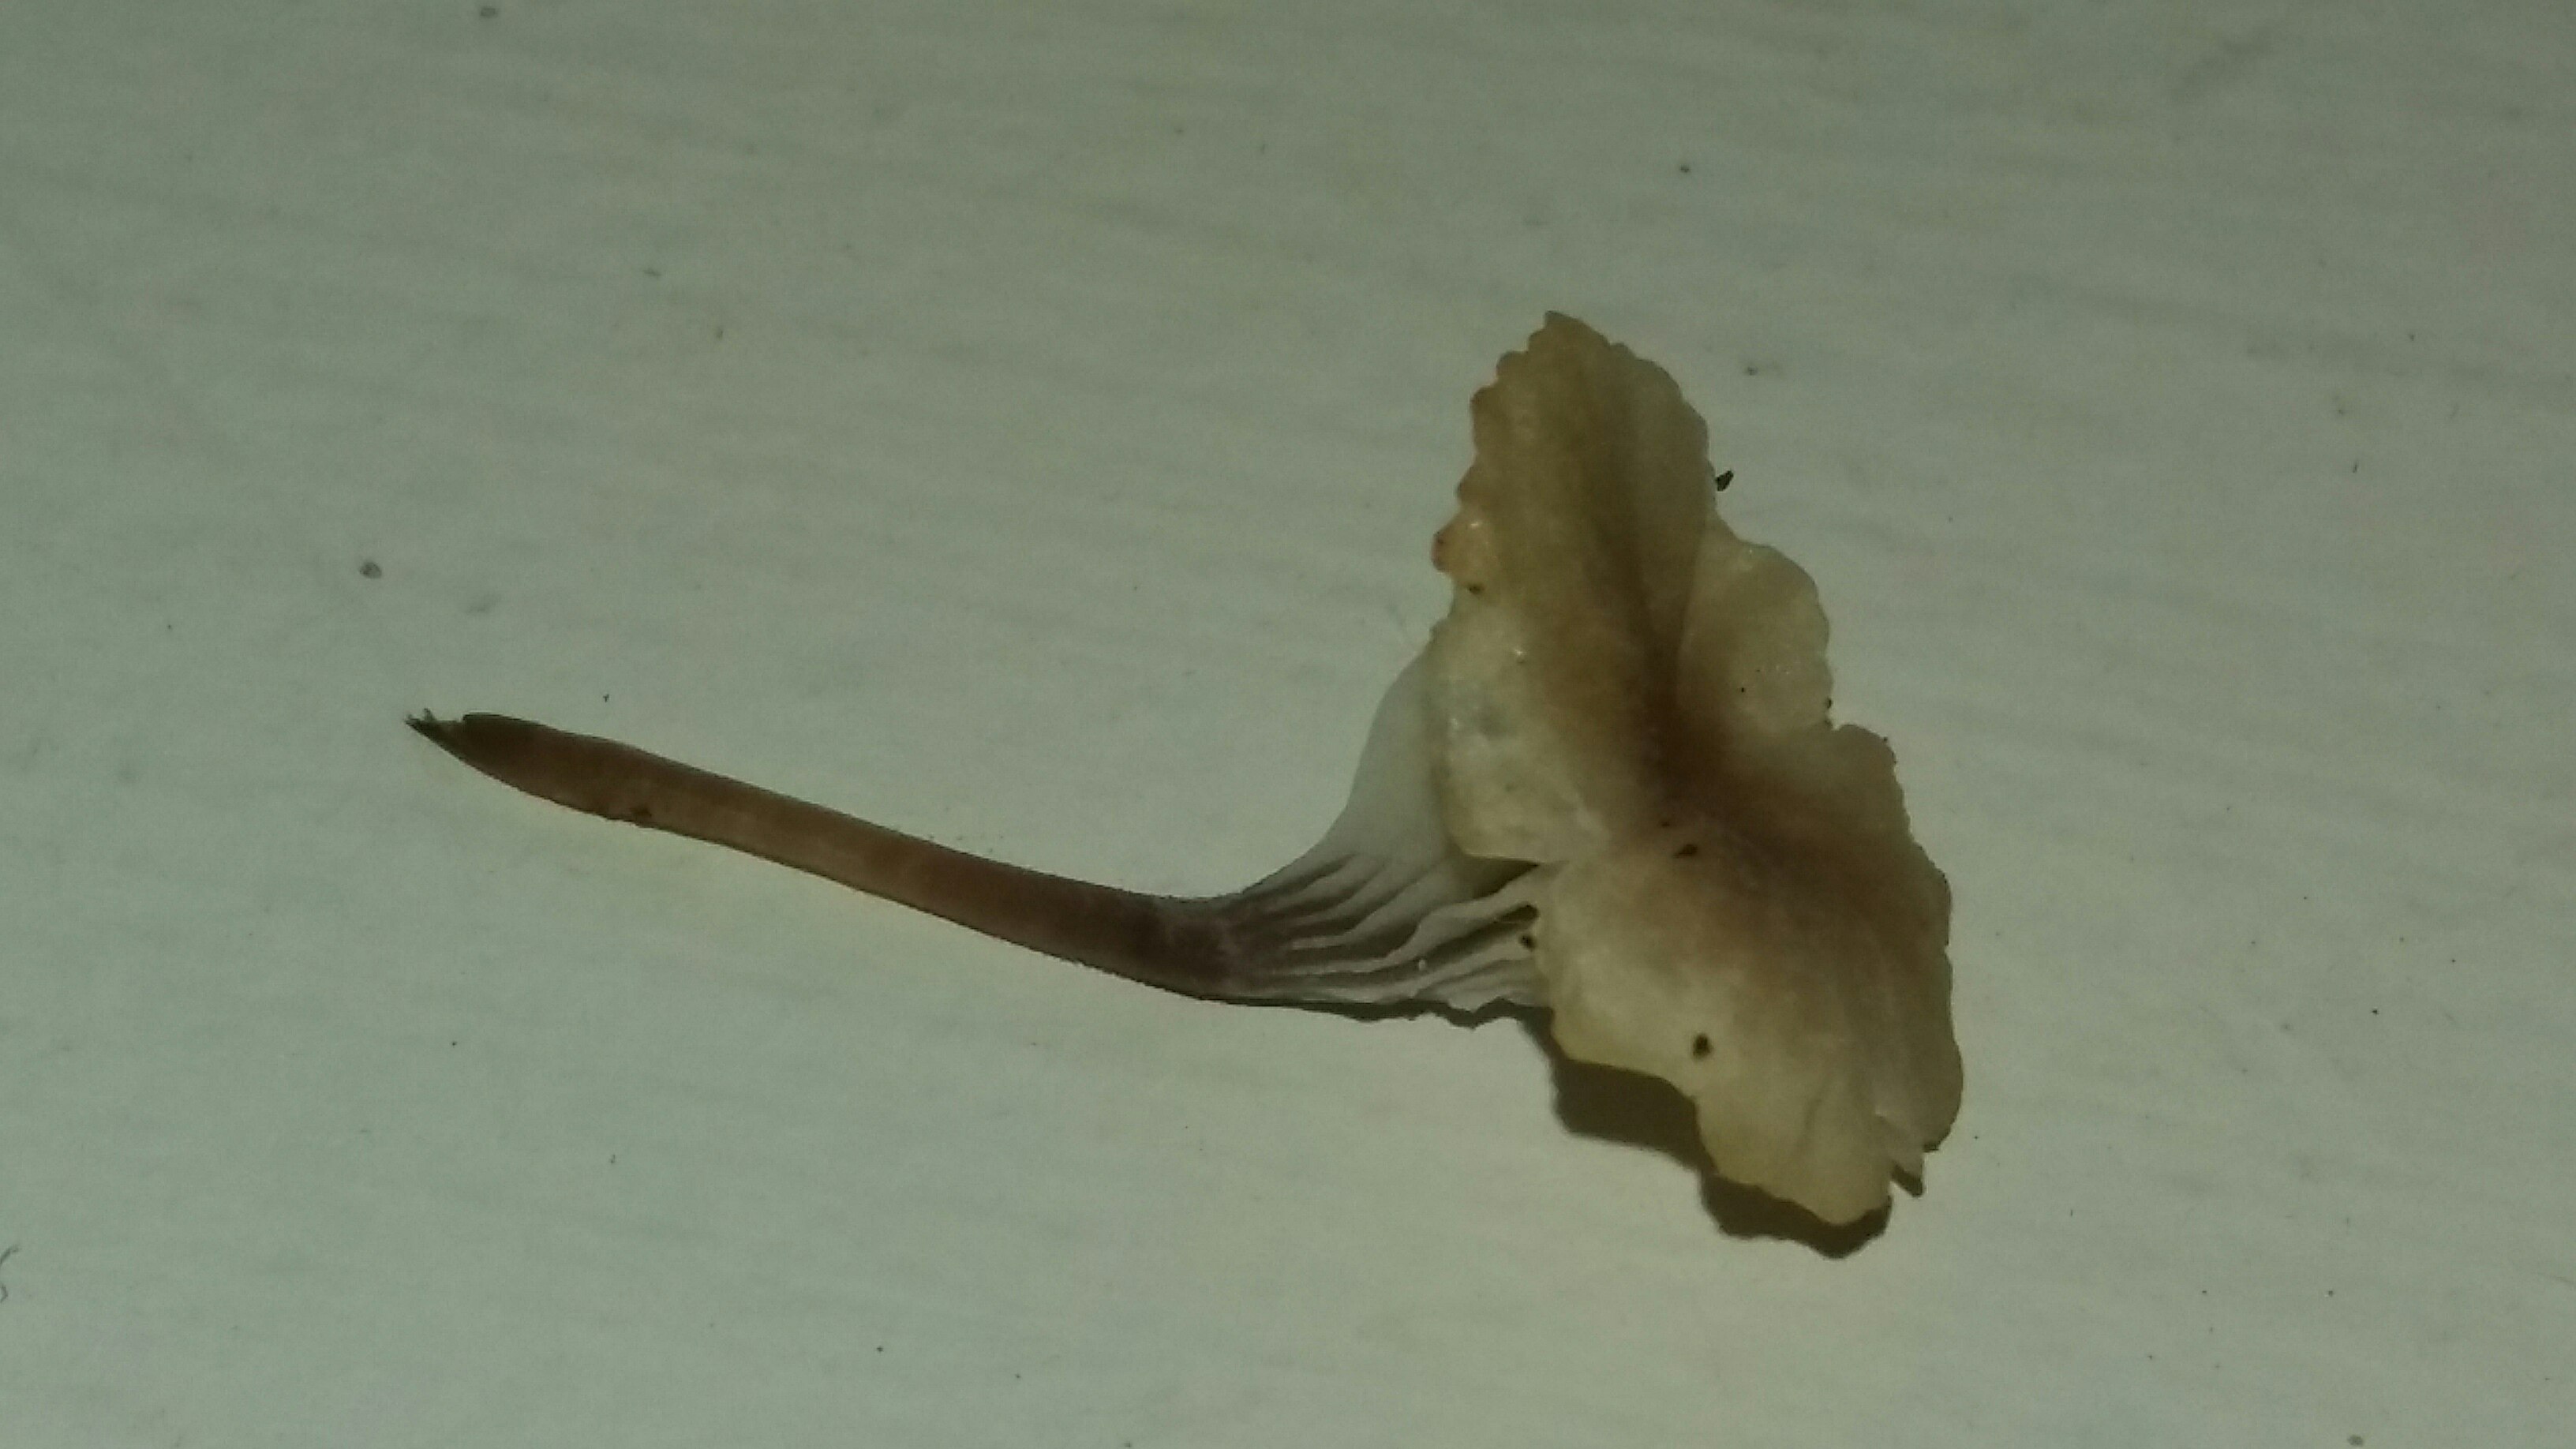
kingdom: Fungi
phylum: Basidiomycota
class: Agaricomycetes
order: Hymenochaetales
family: Rickenellaceae
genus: Rickenella
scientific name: Rickenella swartzii
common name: finstokket mosnavlehat
